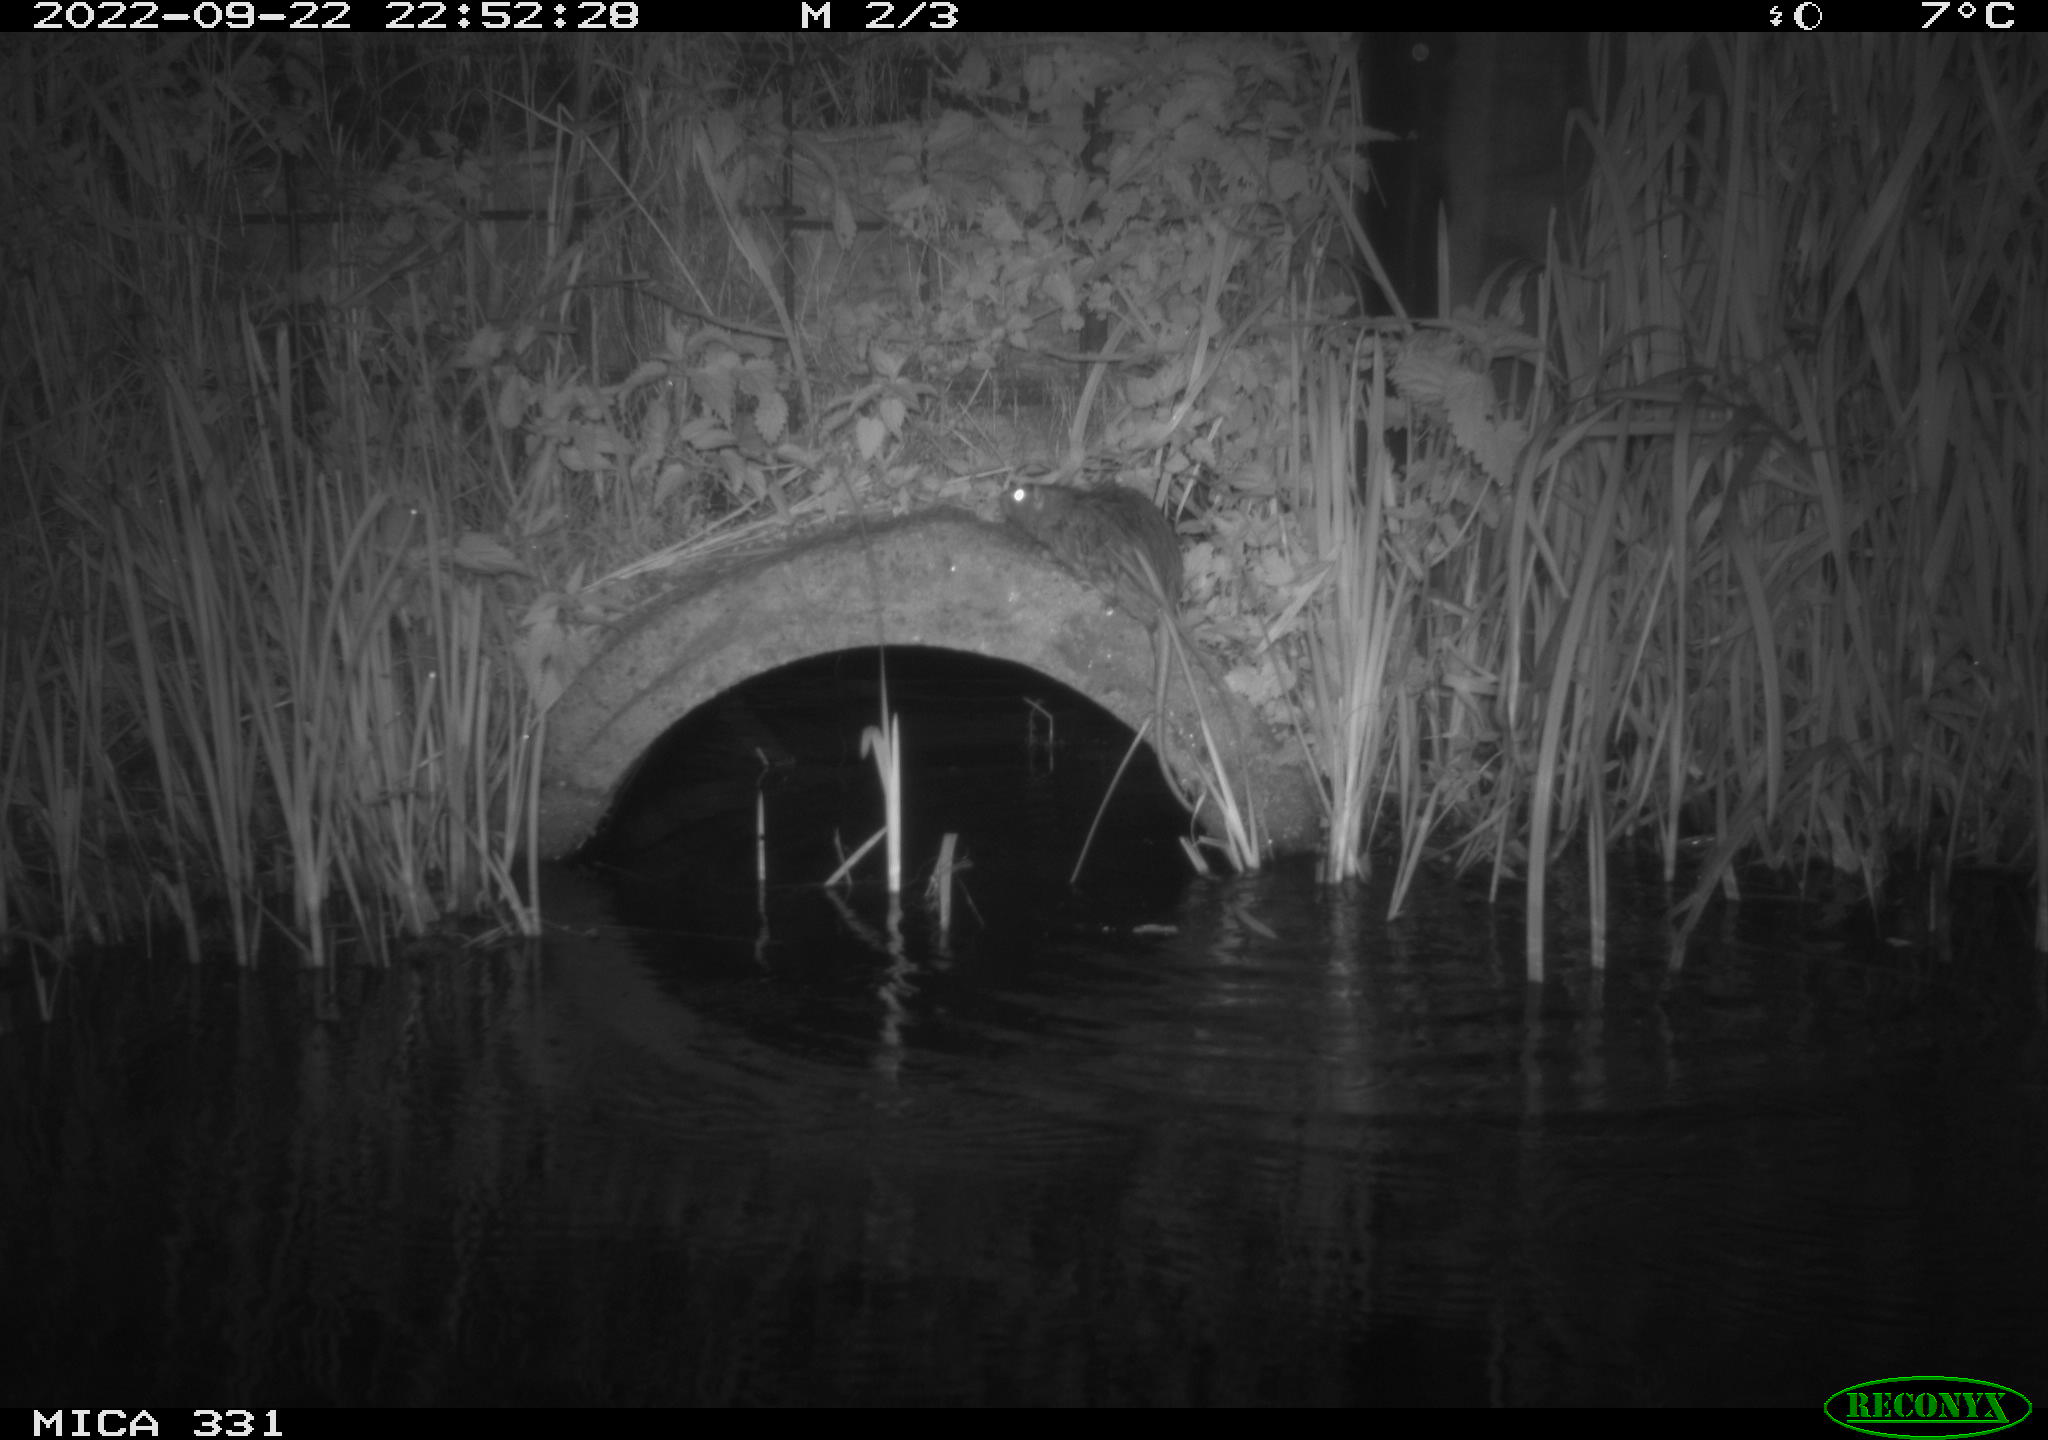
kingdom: Animalia
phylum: Chordata
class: Mammalia
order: Rodentia
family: Muridae
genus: Rattus
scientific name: Rattus norvegicus
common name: Brown rat
